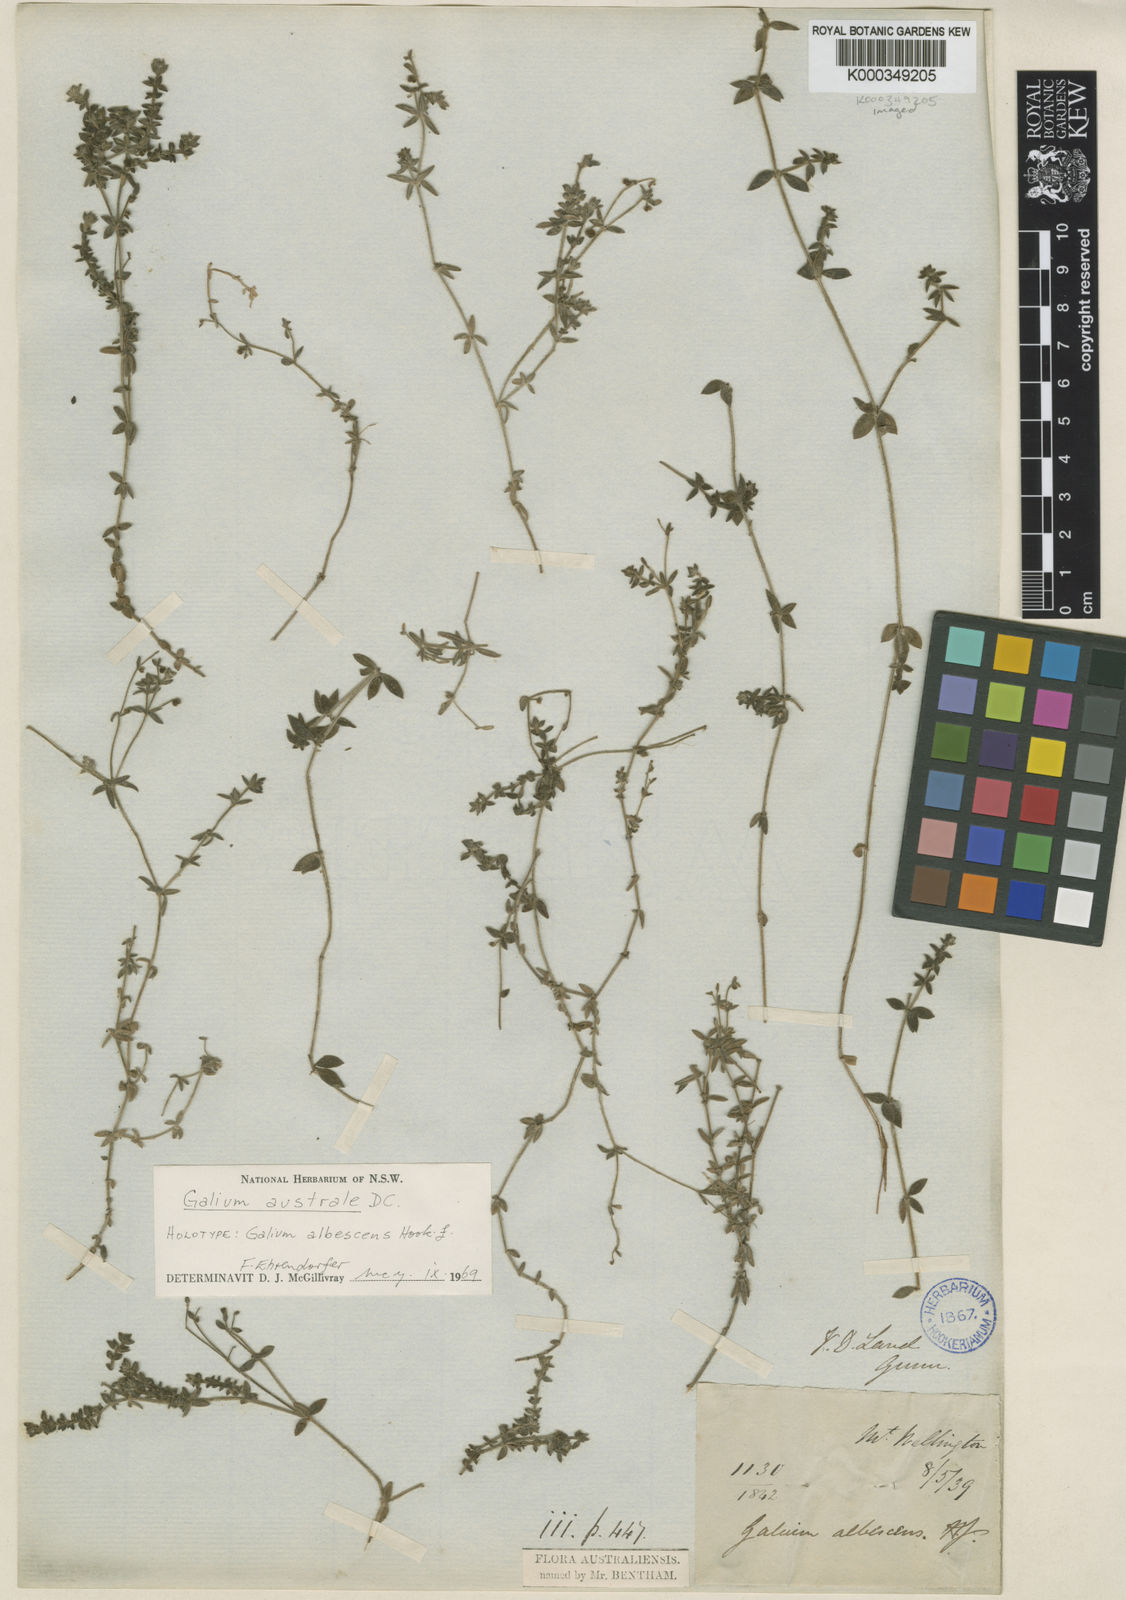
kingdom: Plantae
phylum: Tracheophyta
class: Magnoliopsida
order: Gentianales
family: Rubiaceae
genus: Galium
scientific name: Galium australe
